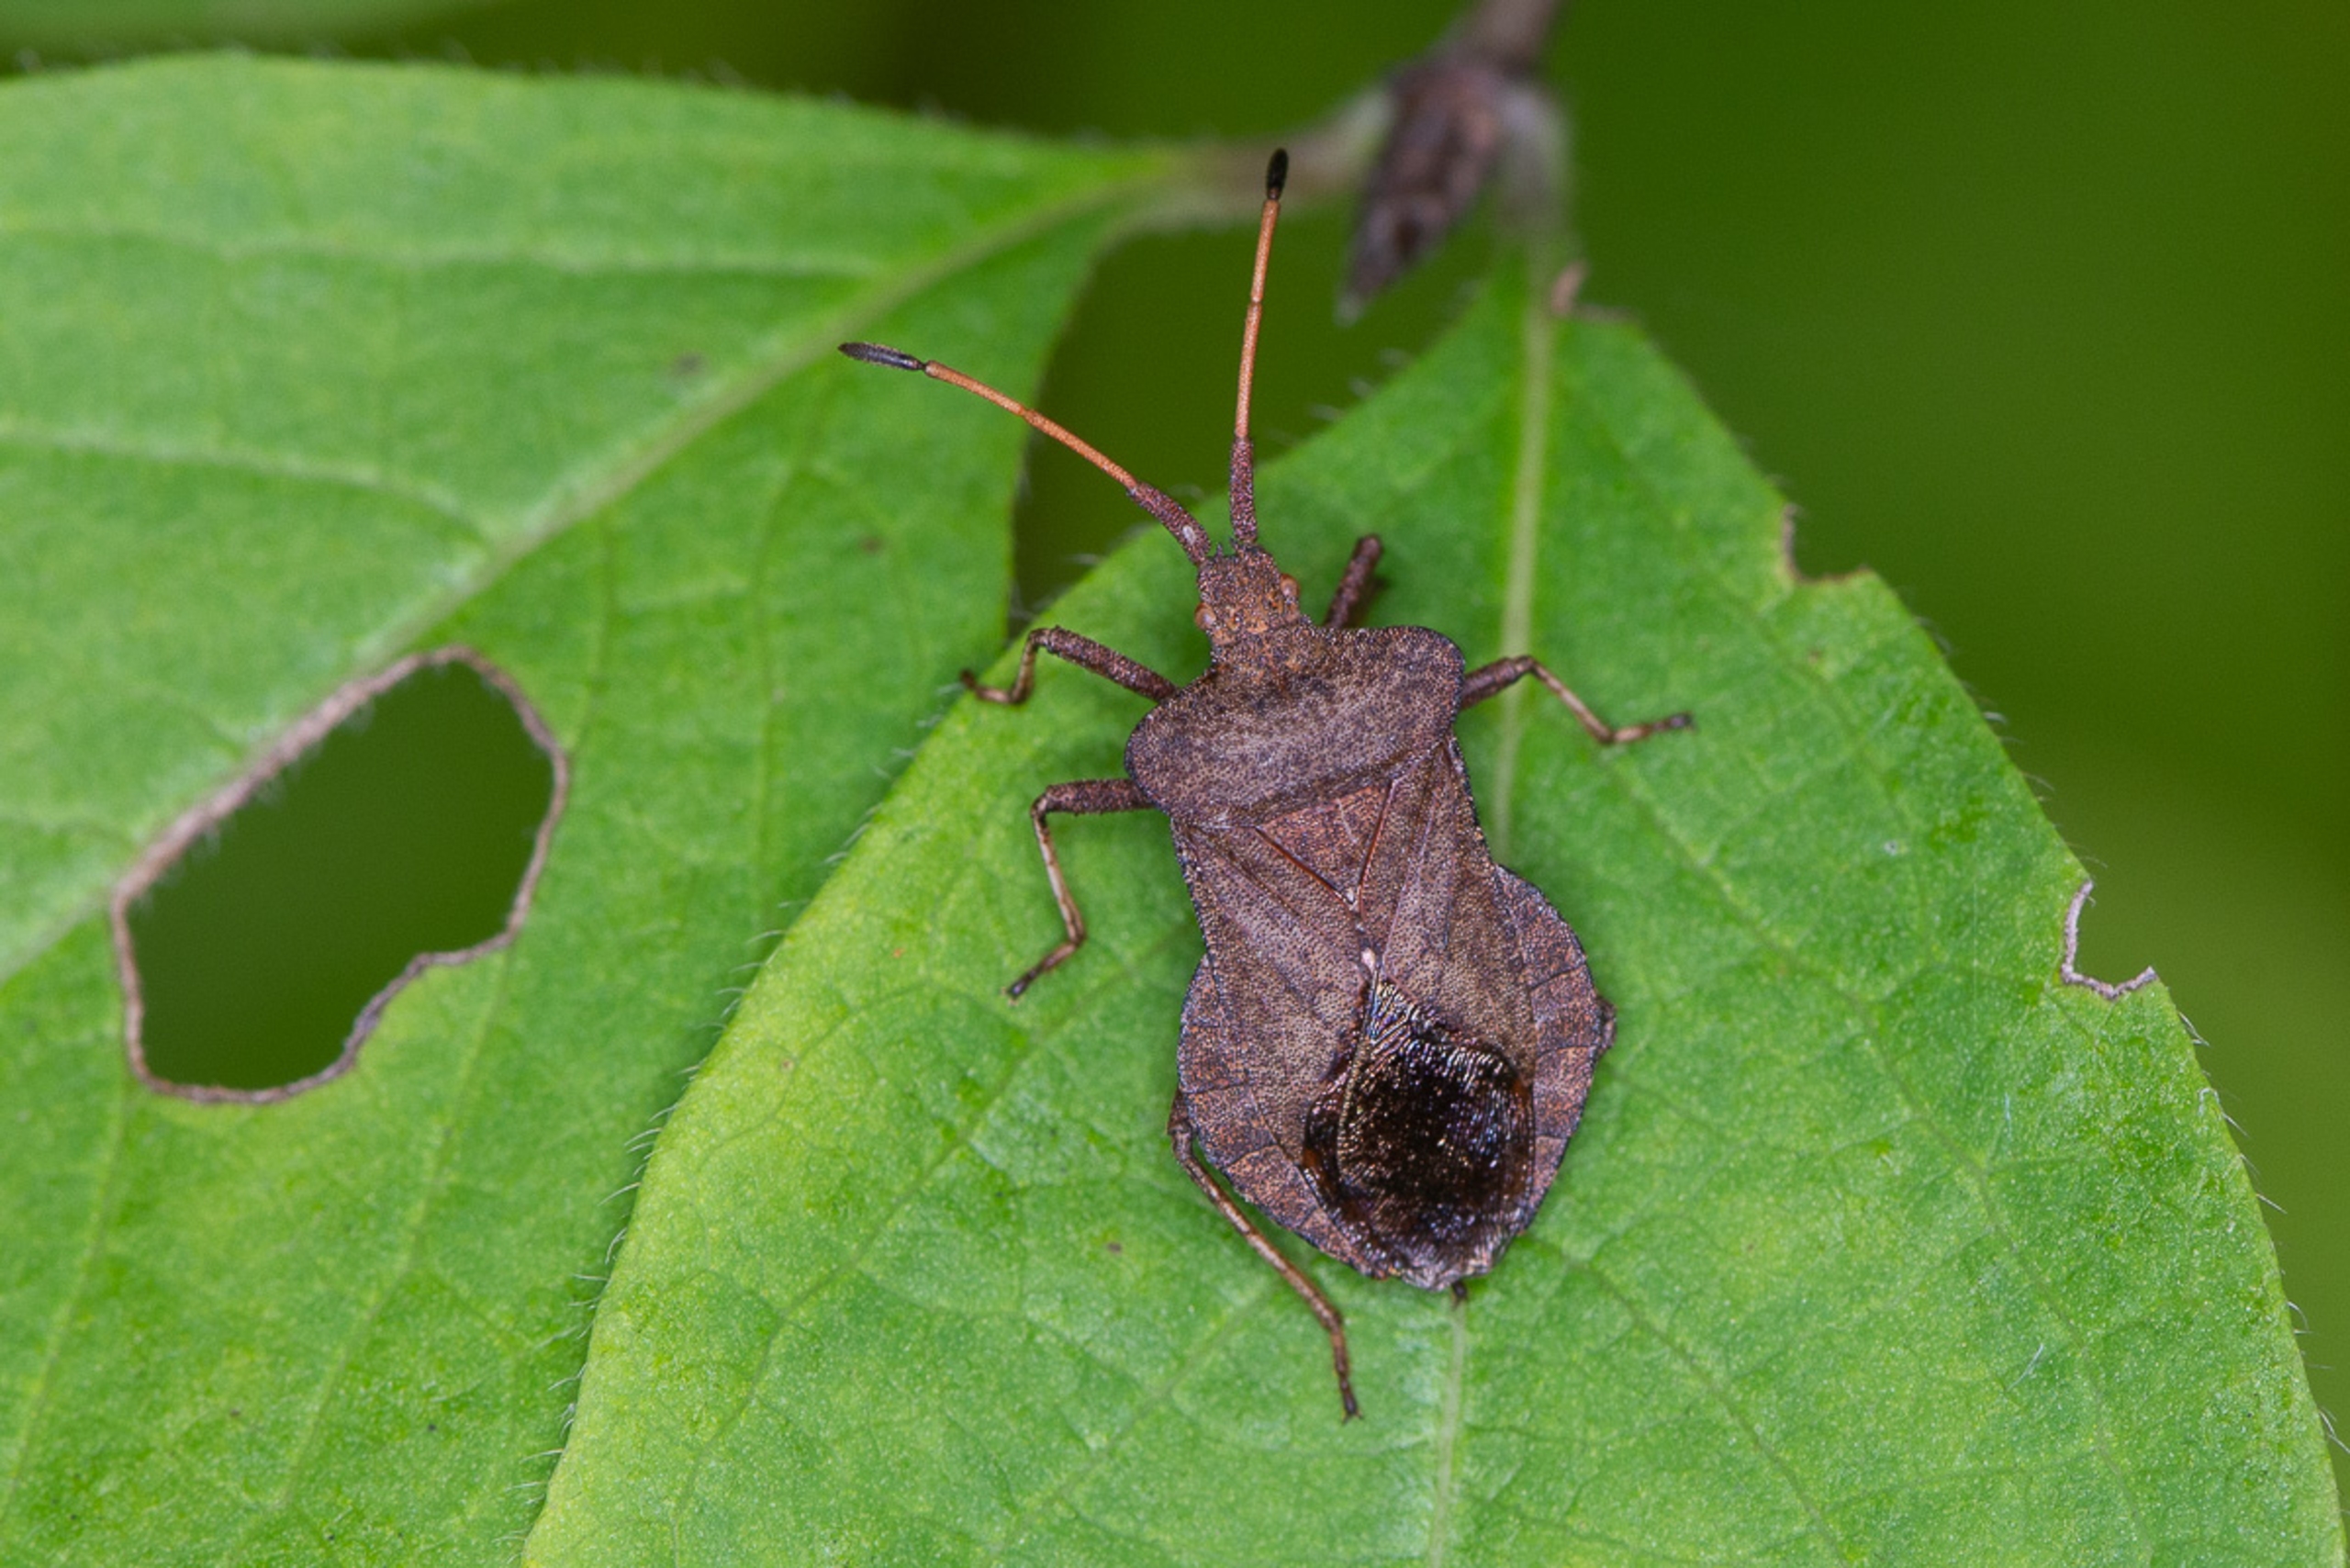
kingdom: Animalia
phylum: Arthropoda
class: Insecta
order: Hemiptera
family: Coreidae
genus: Coreus
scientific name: Coreus marginatus
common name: Skræppetæge
